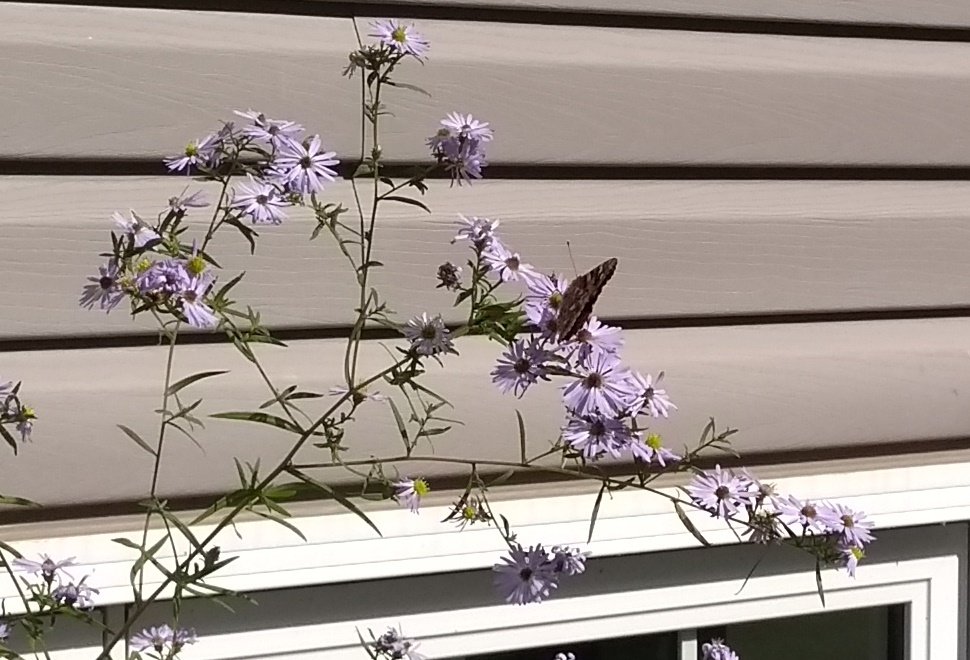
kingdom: Animalia
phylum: Arthropoda
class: Insecta
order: Lepidoptera
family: Nymphalidae
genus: Vanessa
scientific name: Vanessa cardui
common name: Painted Lady
